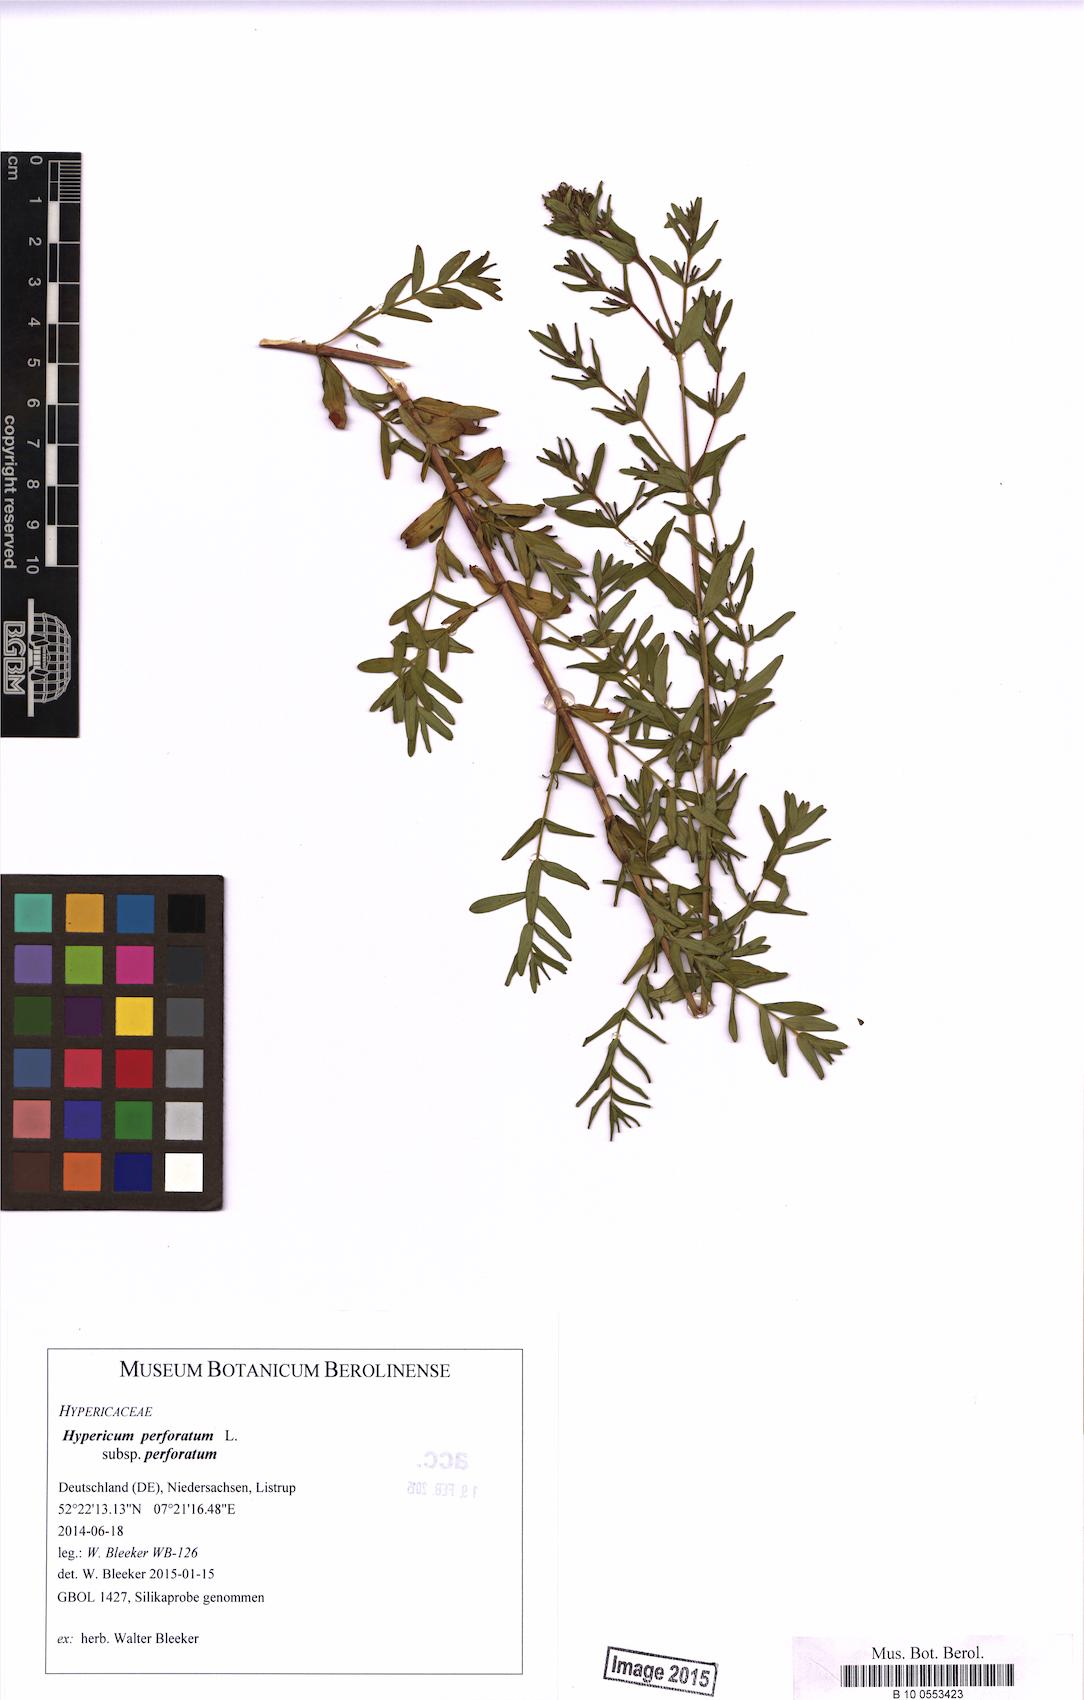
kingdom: Plantae
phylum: Tracheophyta
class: Magnoliopsida
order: Malpighiales
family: Hypericaceae
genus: Hypericum
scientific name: Hypericum perforatum
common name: Common st. johnswort
